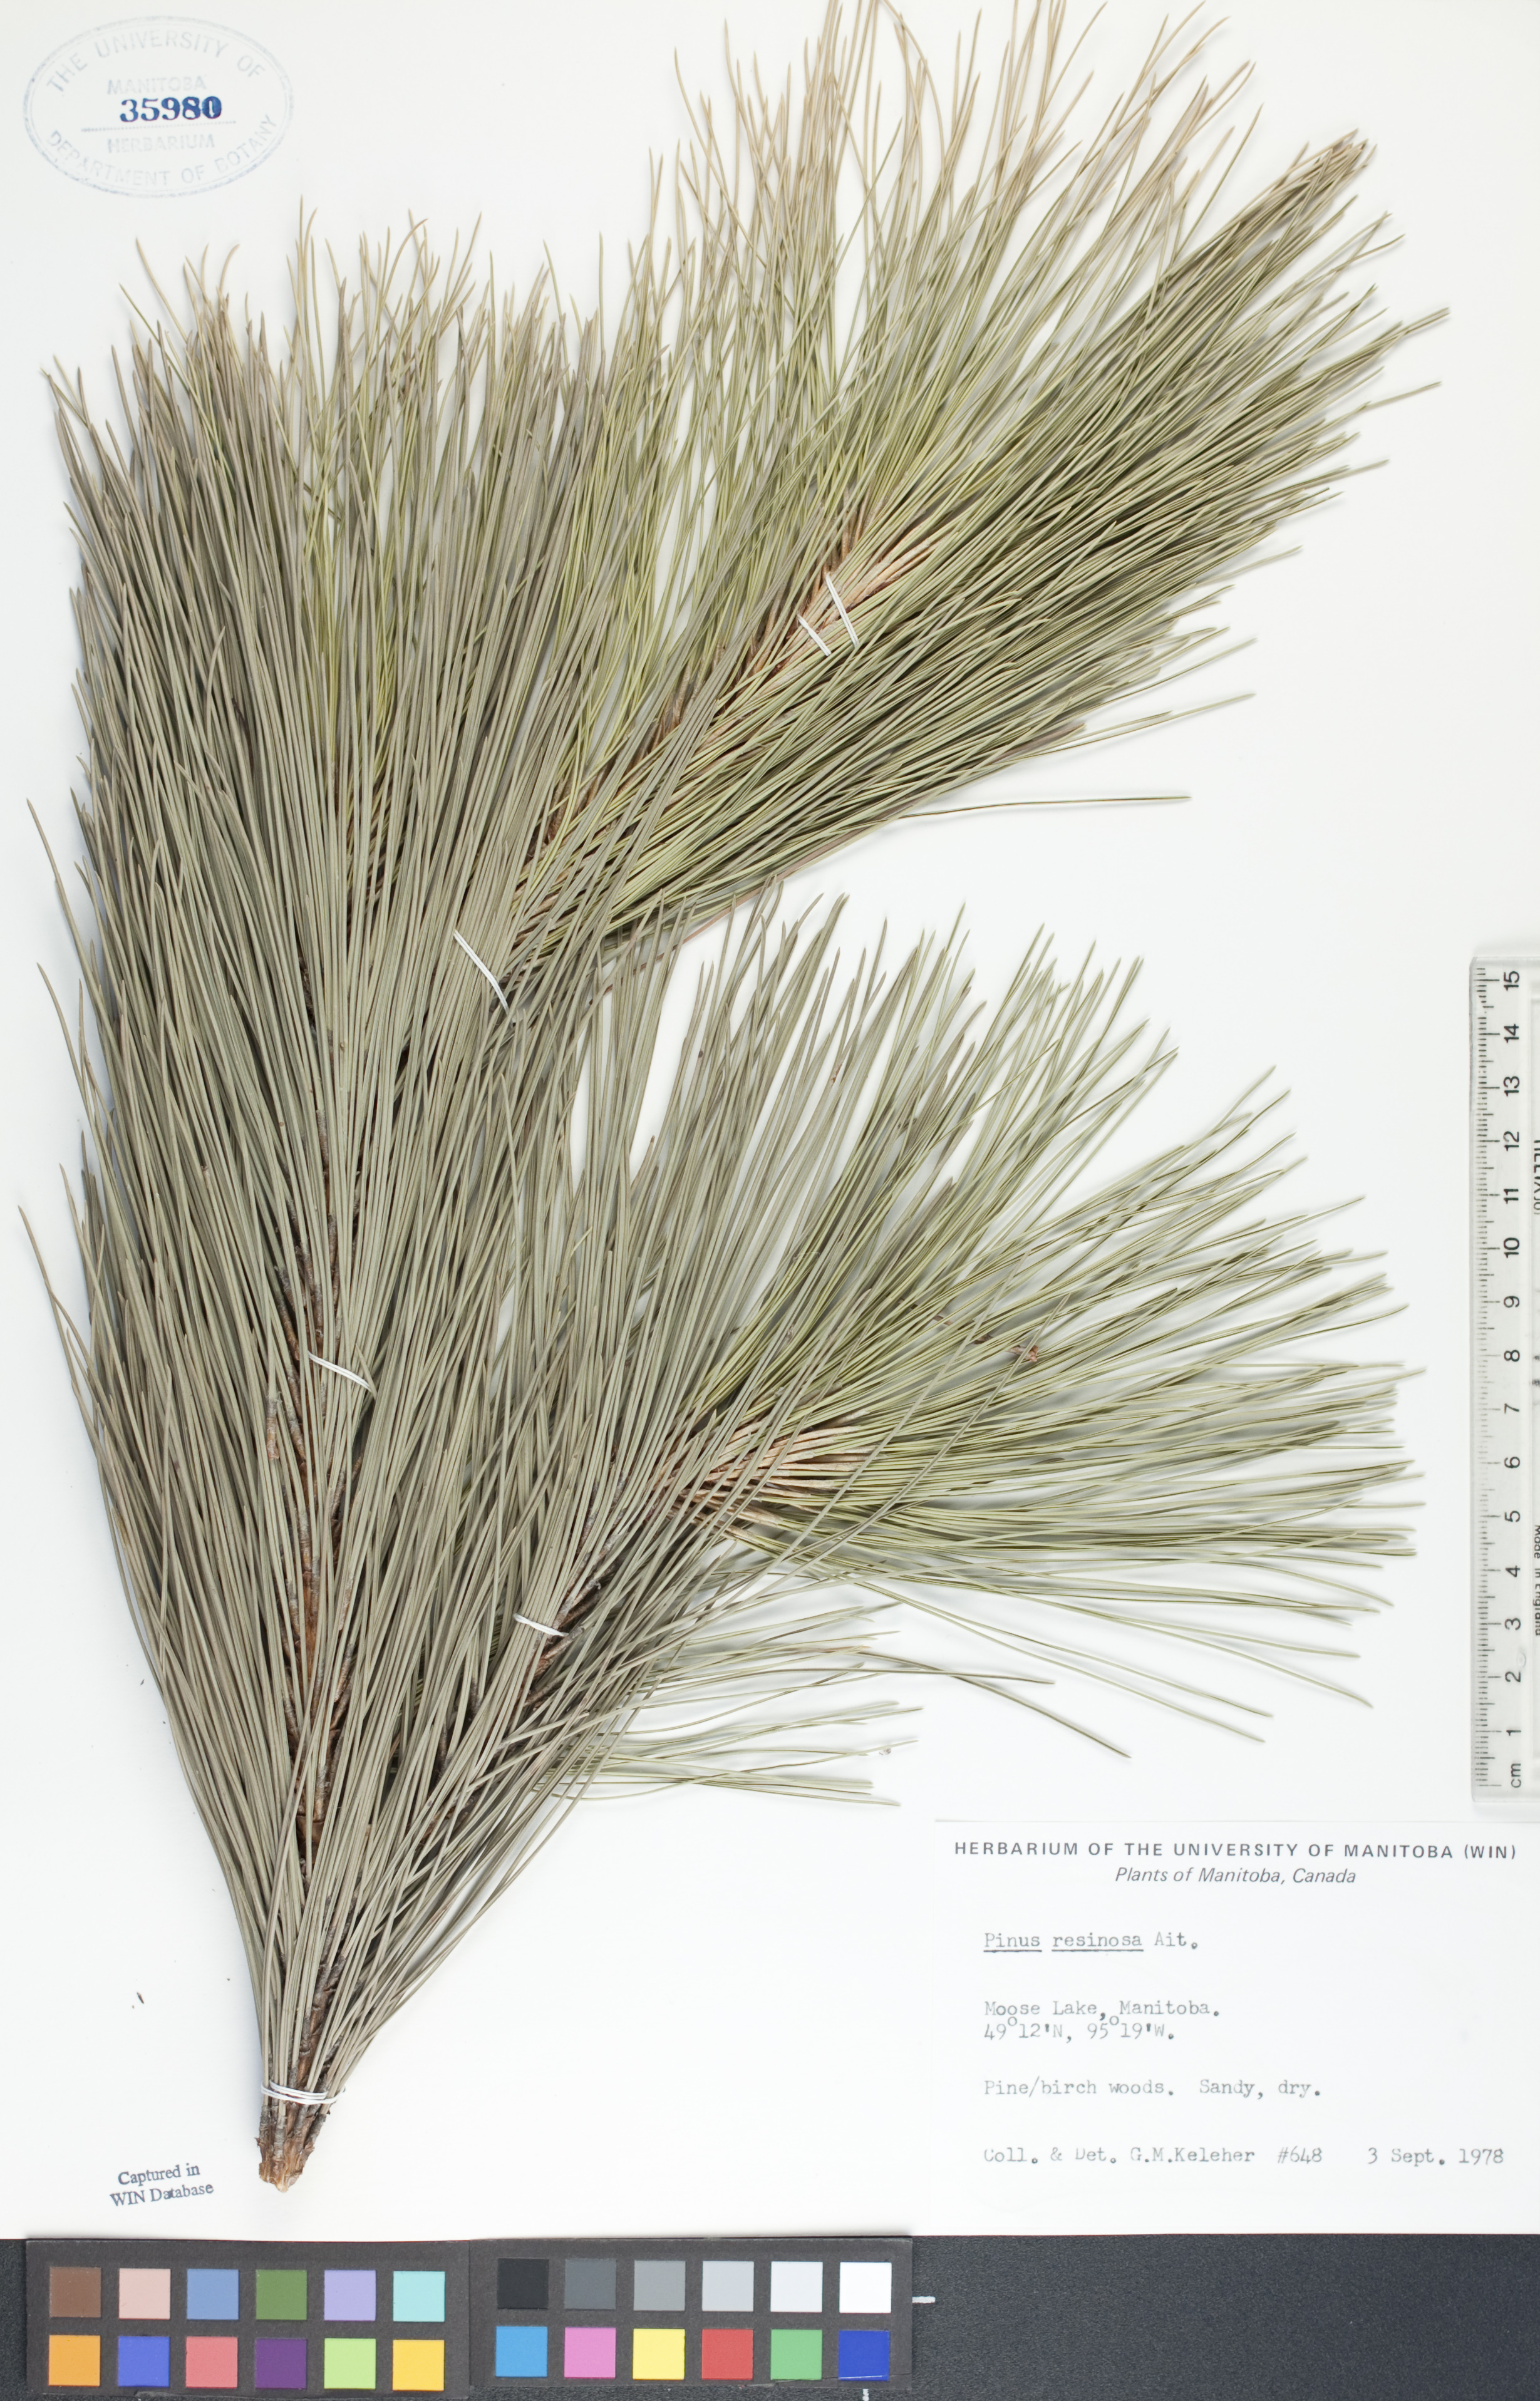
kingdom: Plantae
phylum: Tracheophyta
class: Pinopsida
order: Pinales
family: Pinaceae
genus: Pinus
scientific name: Pinus resinosa
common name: Norway pine
